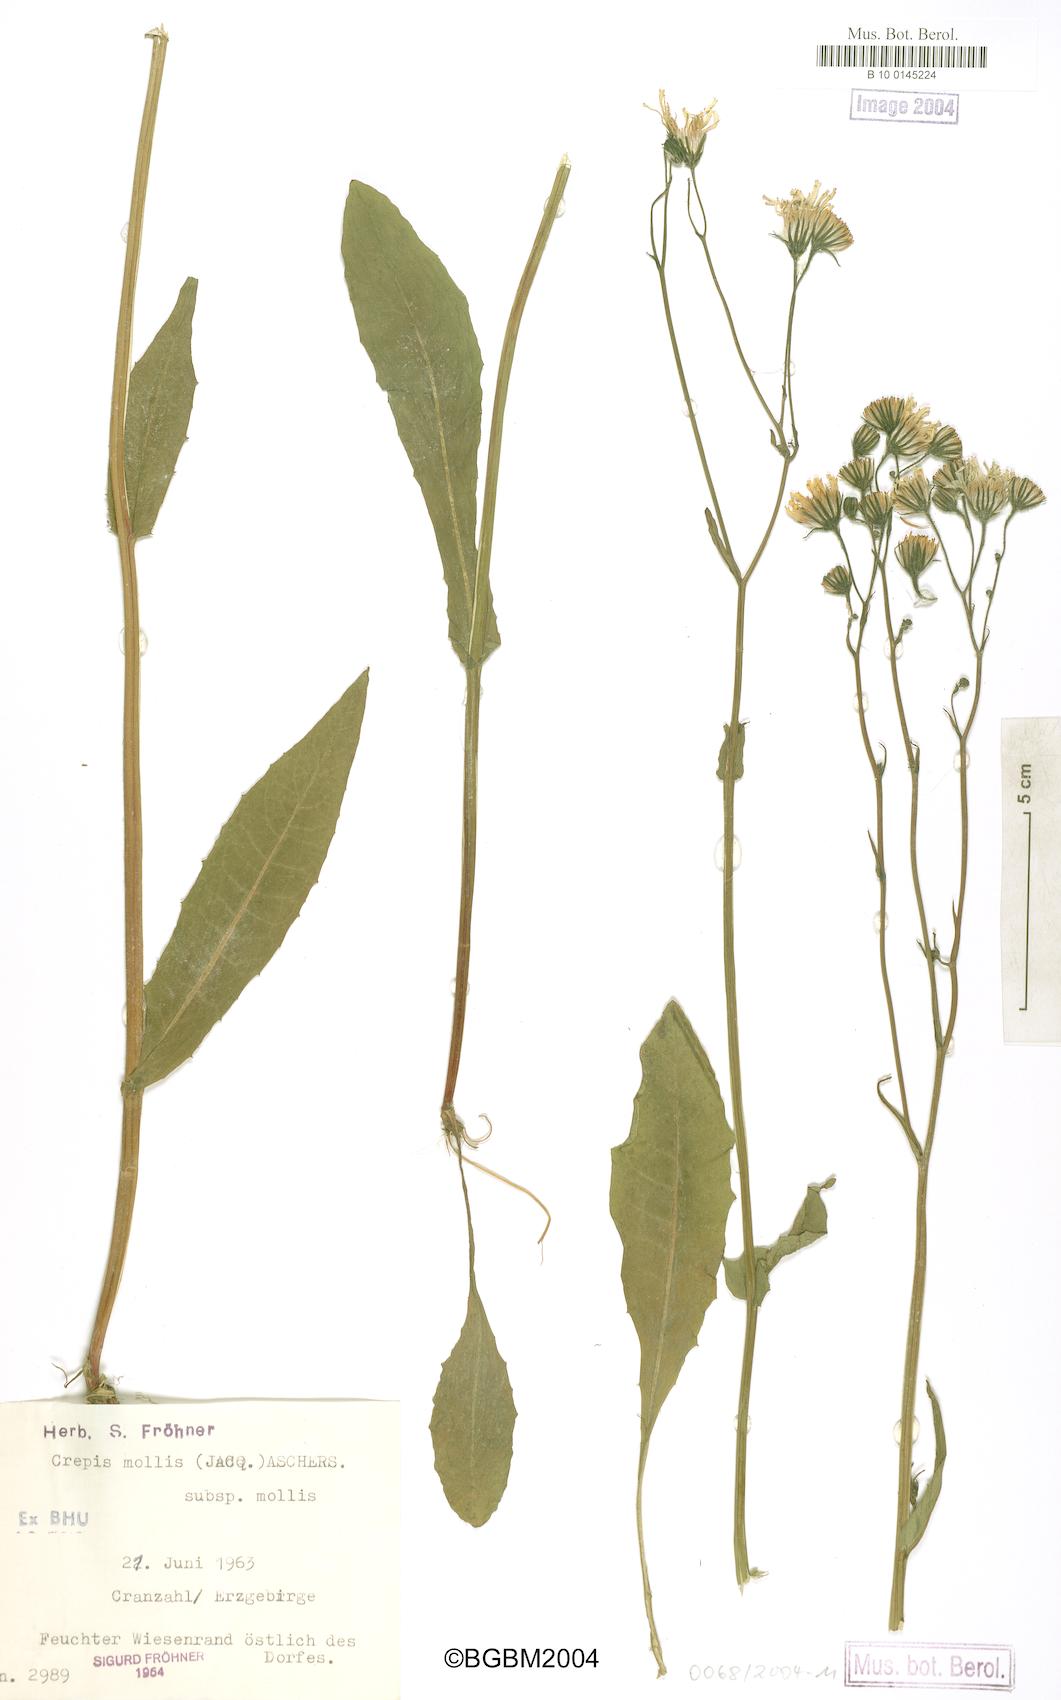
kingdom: Plantae
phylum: Tracheophyta
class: Magnoliopsida
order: Asterales
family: Asteraceae
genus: Crepis
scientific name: Crepis mollis
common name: Northern hawk's-beard
